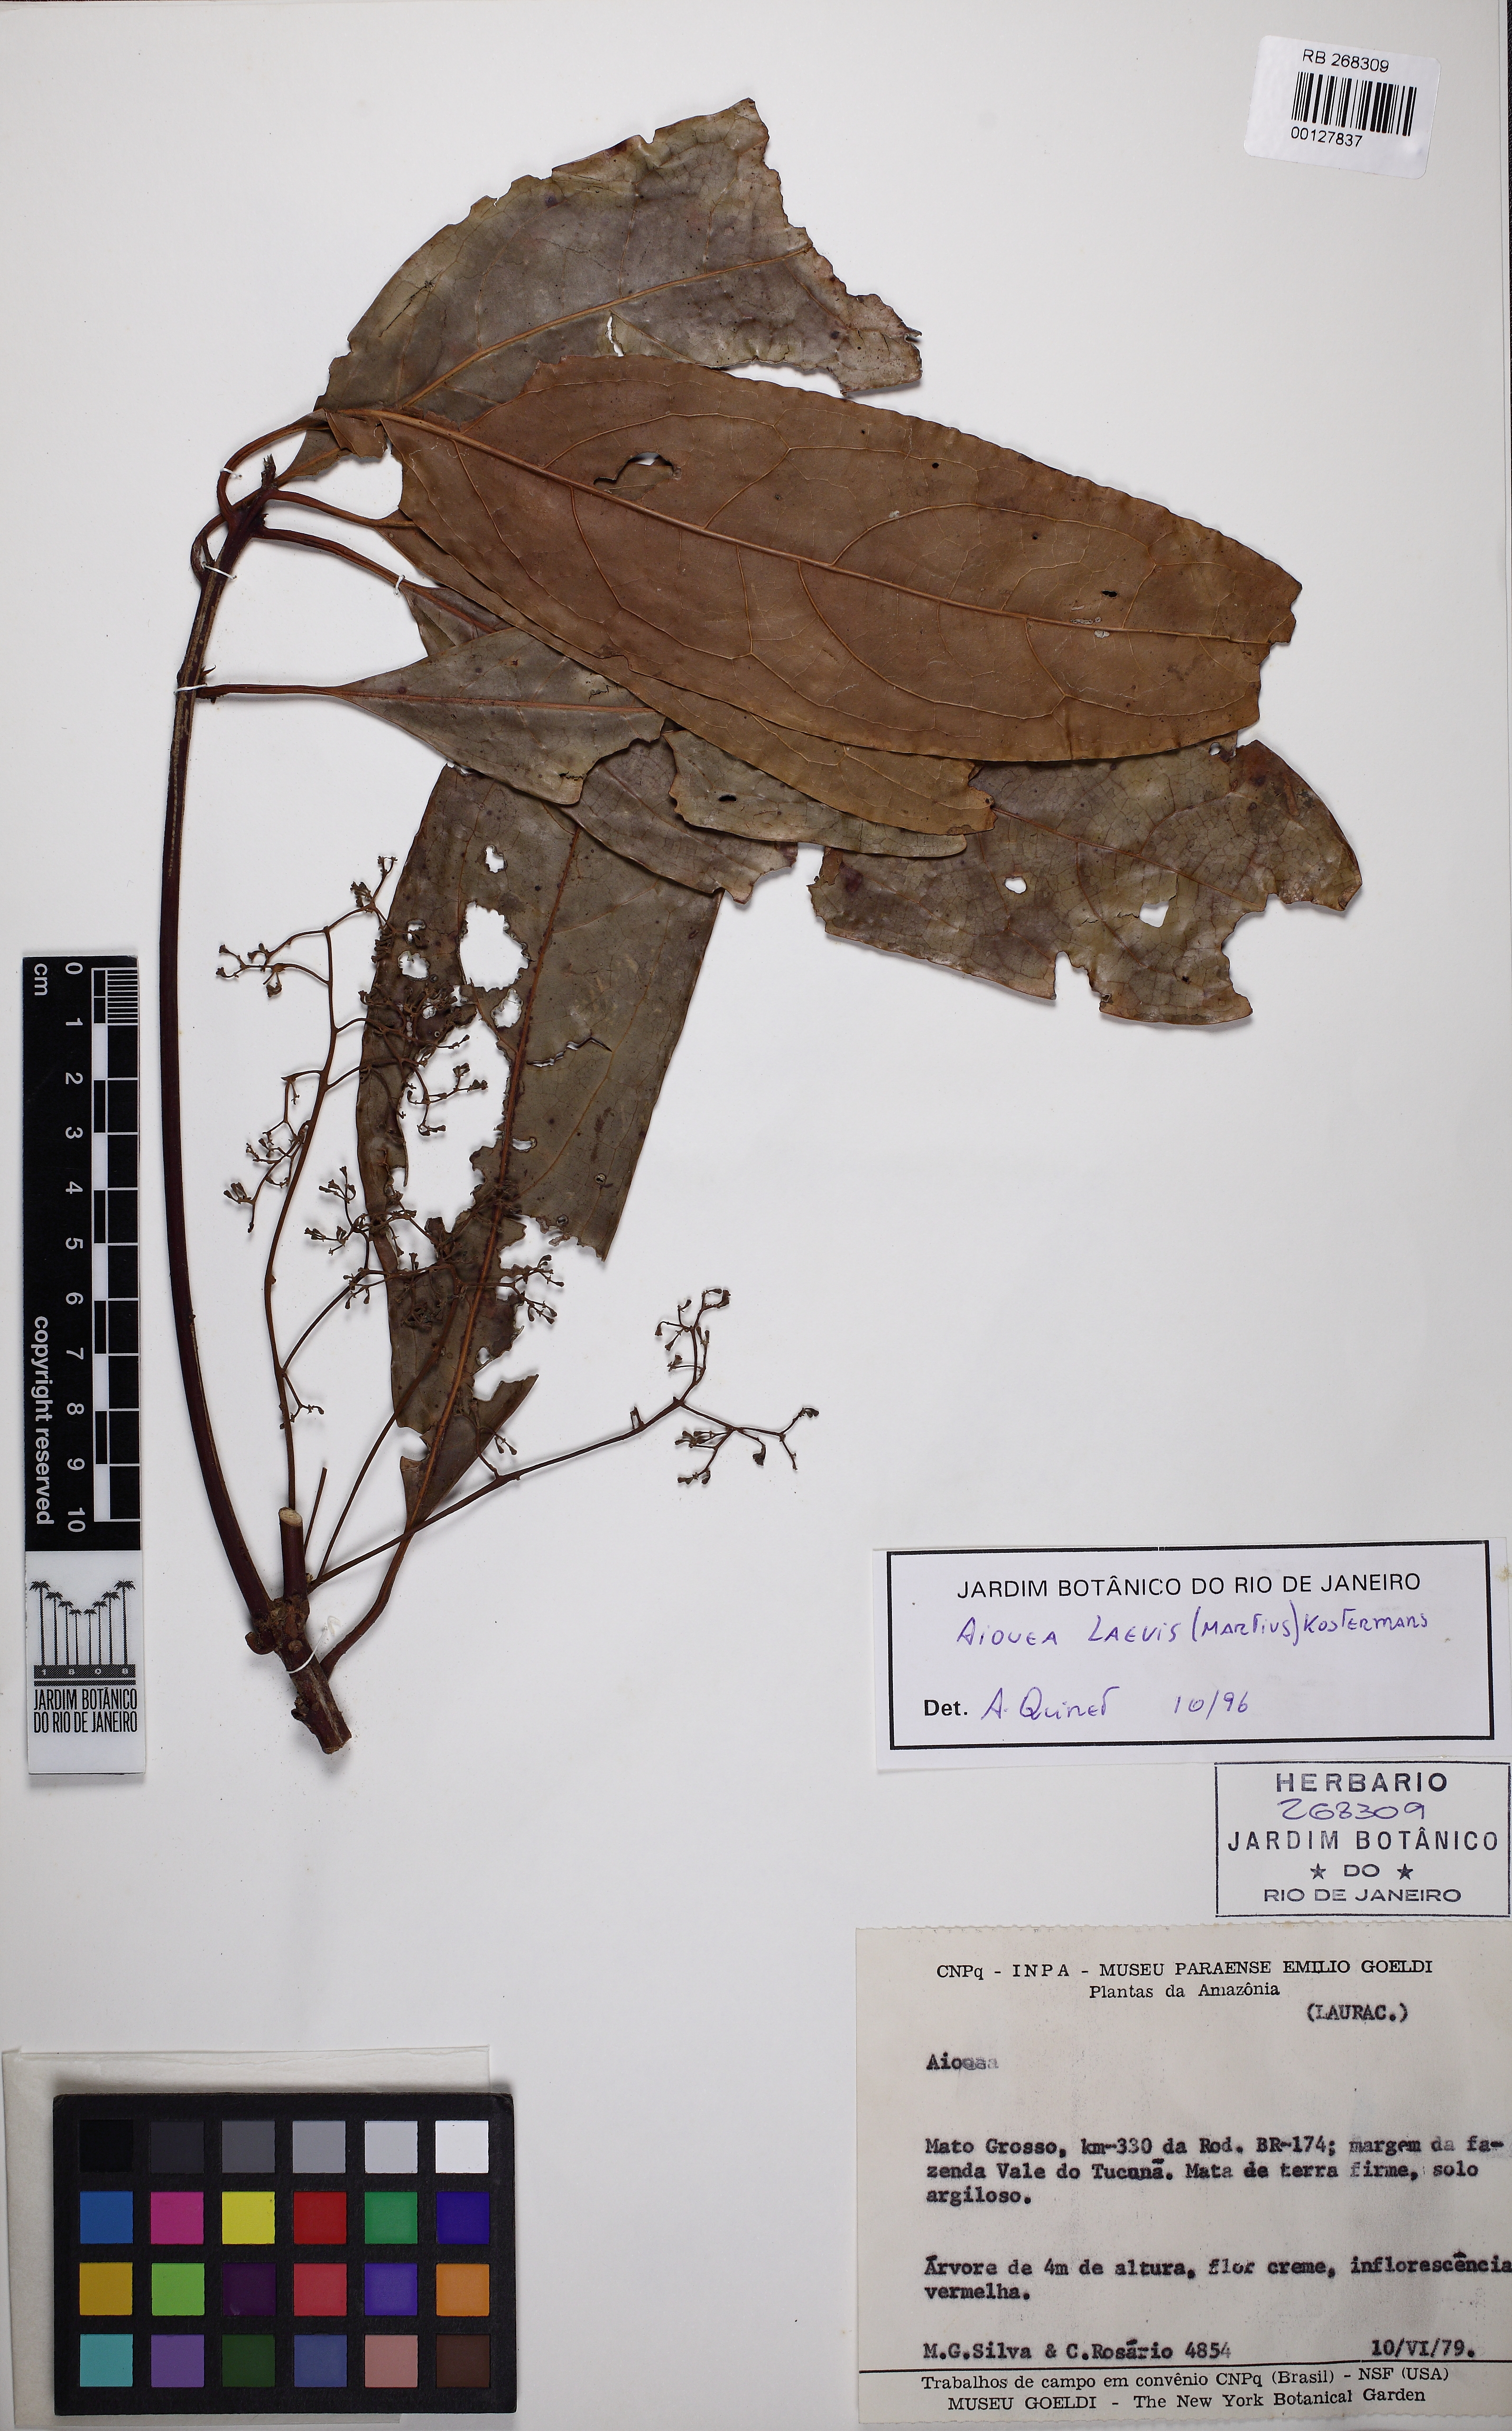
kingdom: Plantae
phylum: Tracheophyta
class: Magnoliopsida
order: Laurales
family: Lauraceae
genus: Aiouea
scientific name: Aiouea laevis
